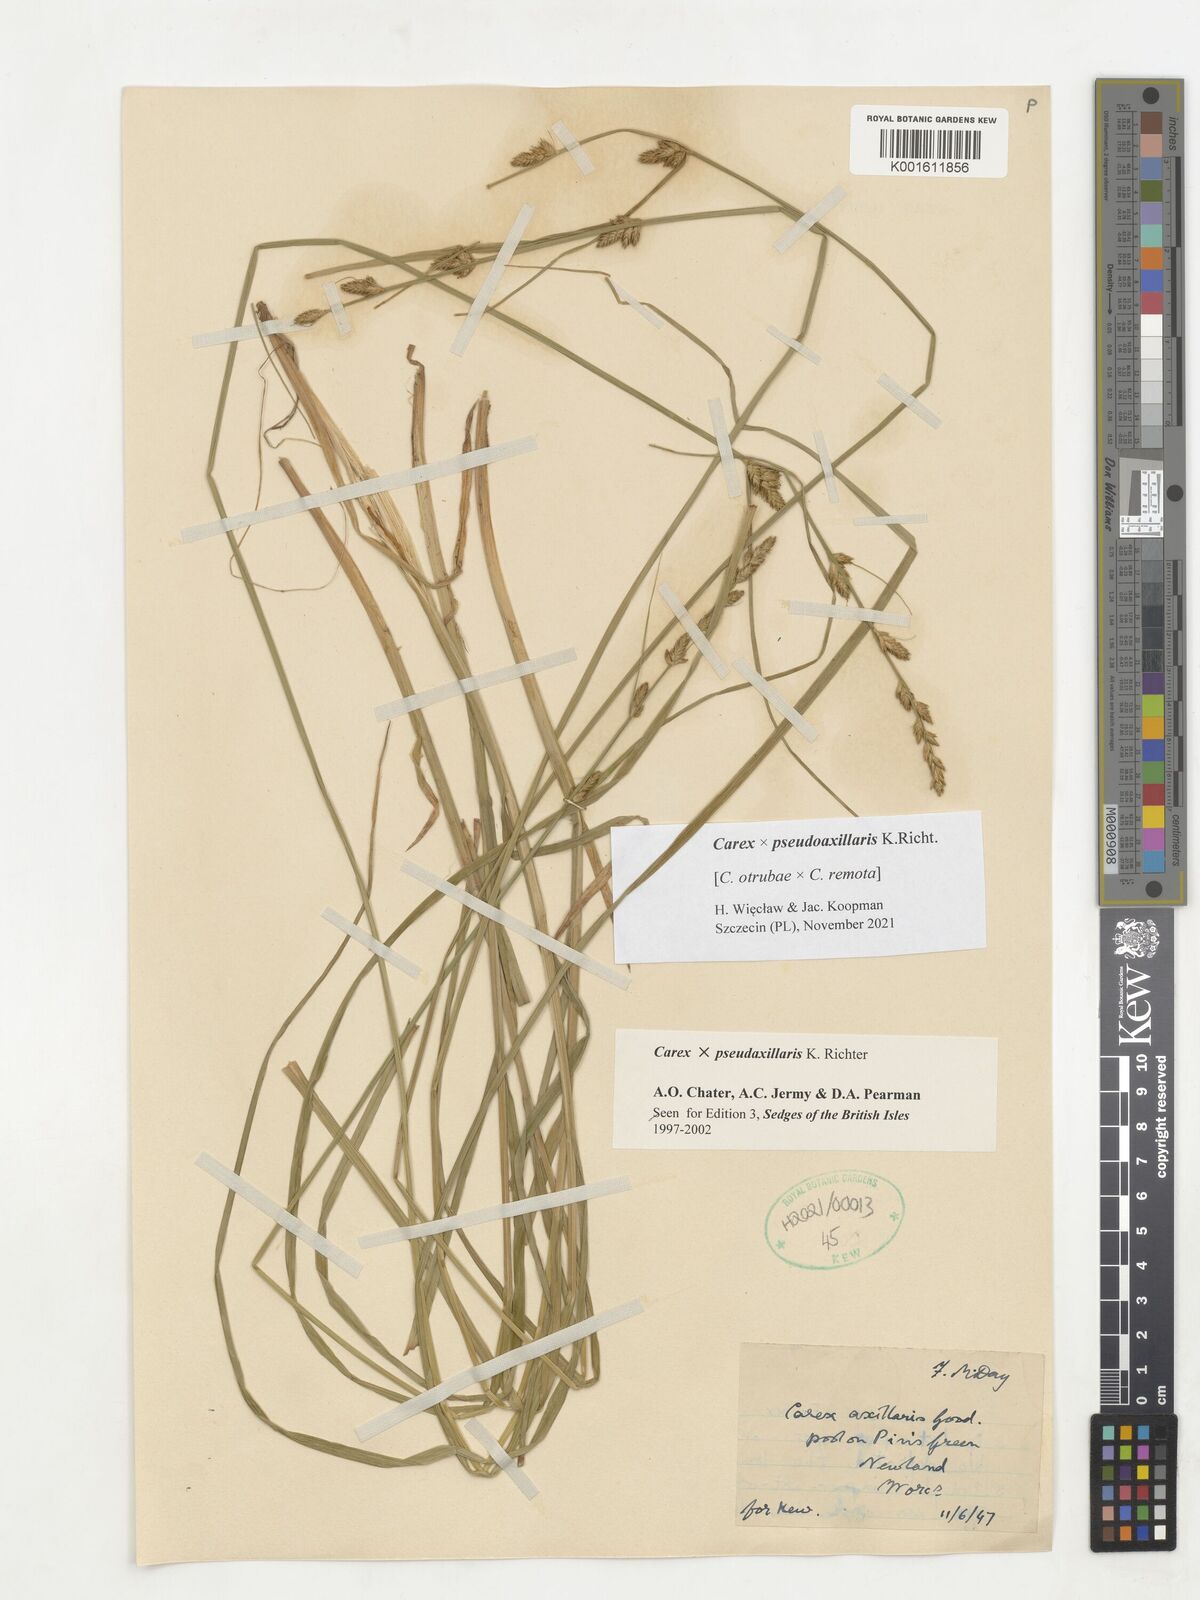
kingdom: Plantae
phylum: Tracheophyta
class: Liliopsida
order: Poales
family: Cyperaceae
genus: Carex
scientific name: Carex pseudoaxillaris
